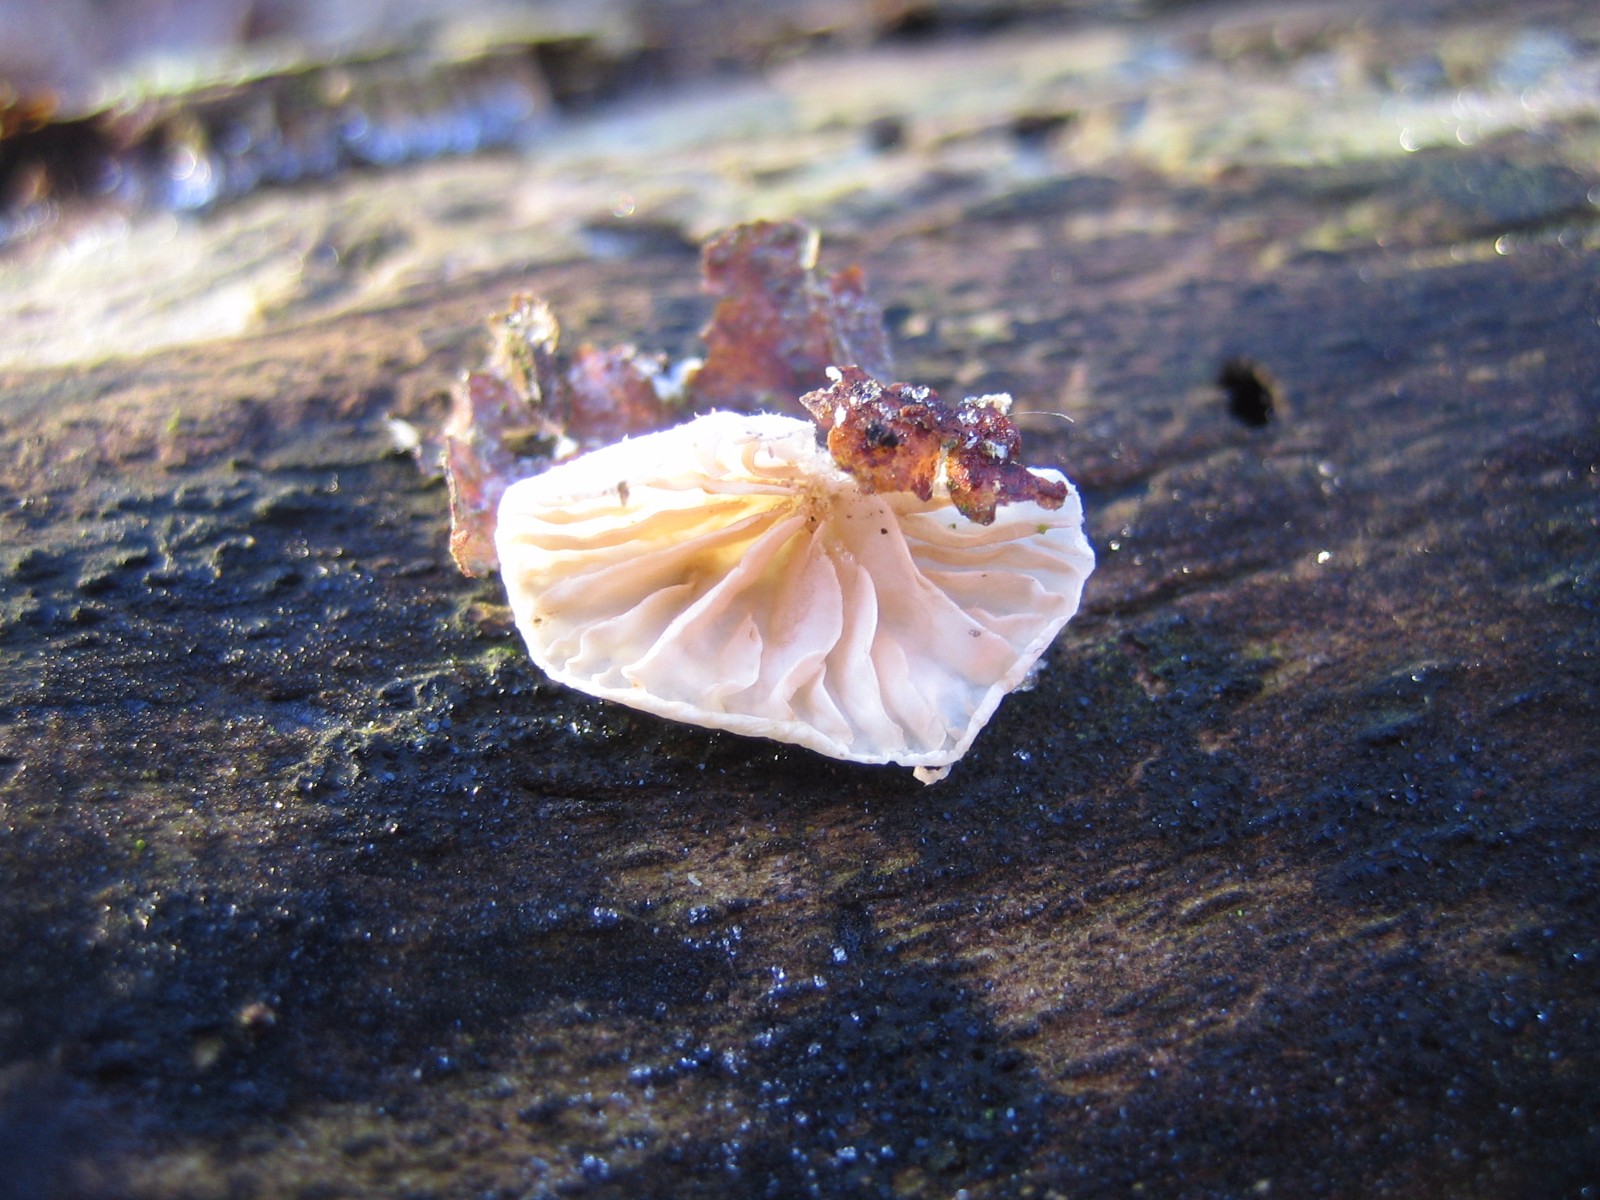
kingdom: Fungi
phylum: Basidiomycota
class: Agaricomycetes
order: Agaricales
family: Crepidotaceae
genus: Crepidotus
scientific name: Crepidotus
